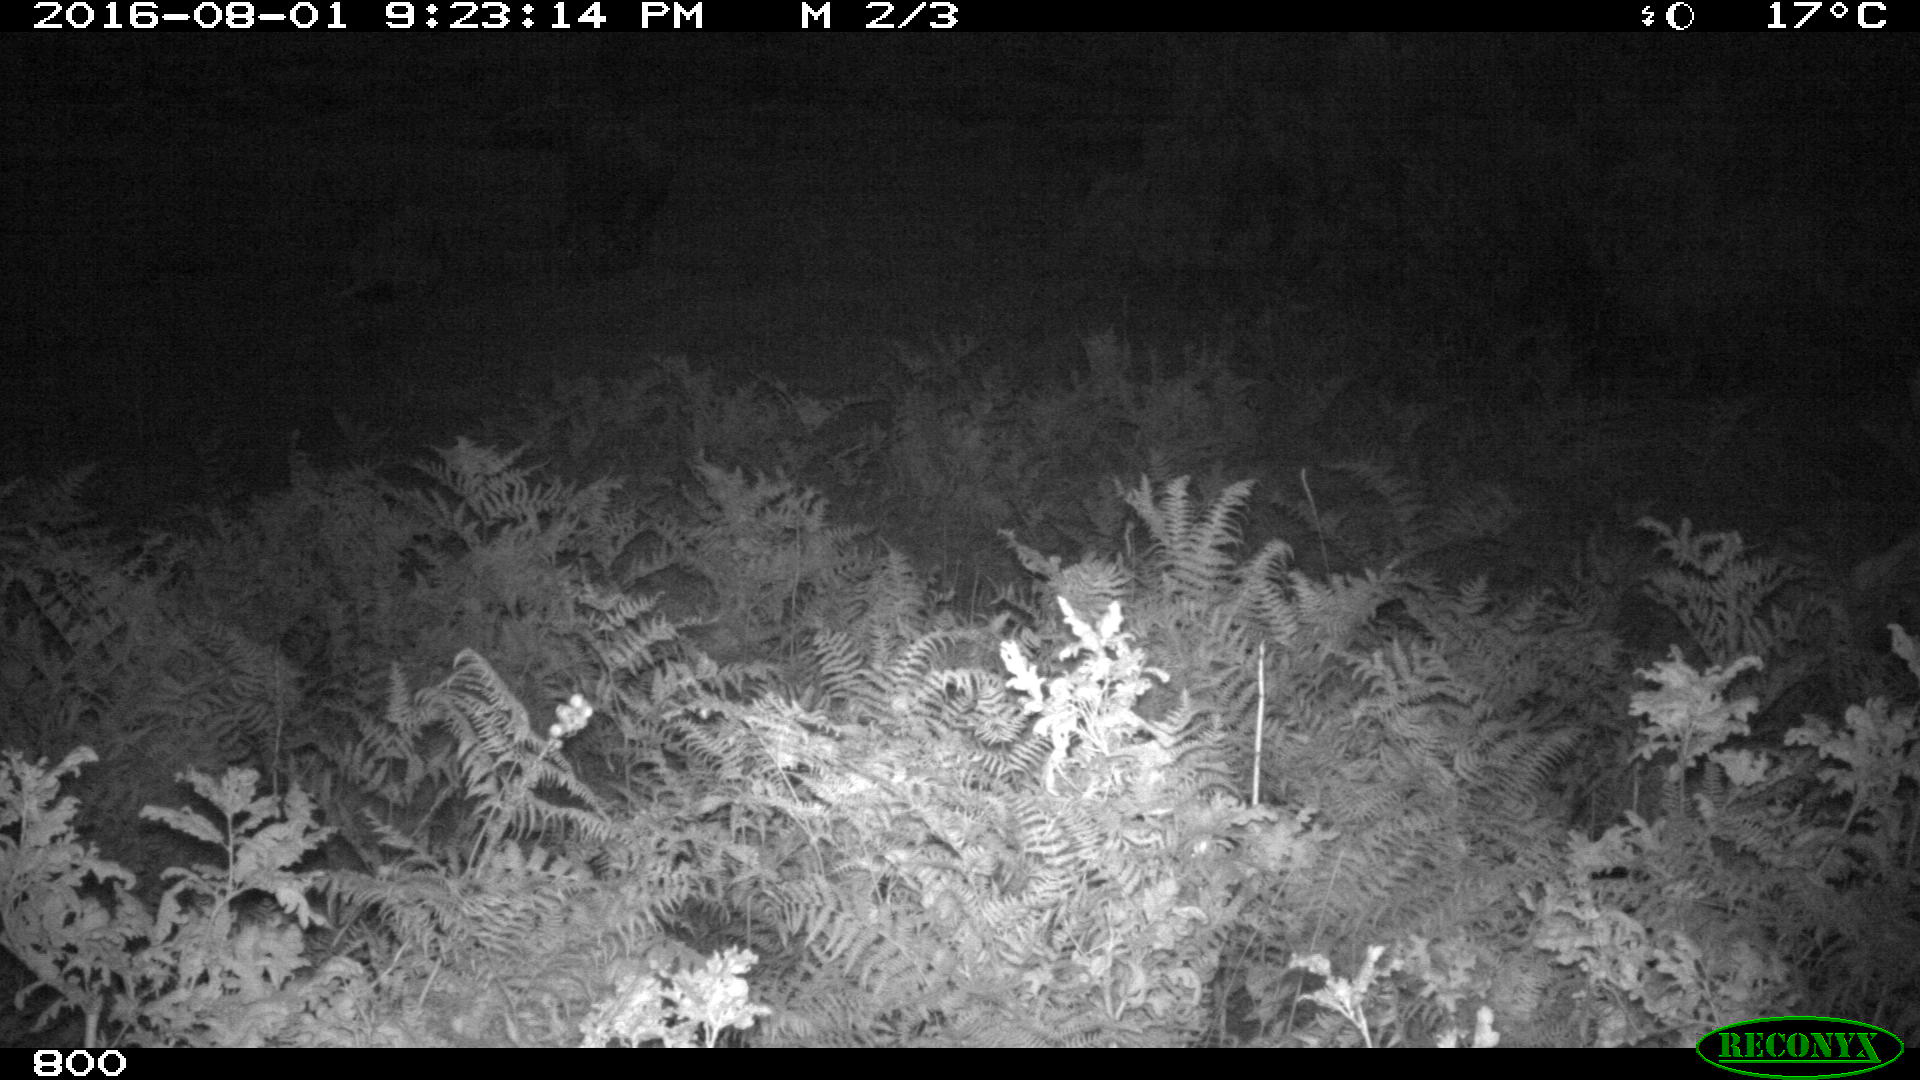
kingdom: Animalia
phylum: Chordata
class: Mammalia
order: Artiodactyla
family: Bovidae
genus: Bos
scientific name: Bos taurus
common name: Domesticated cattle
